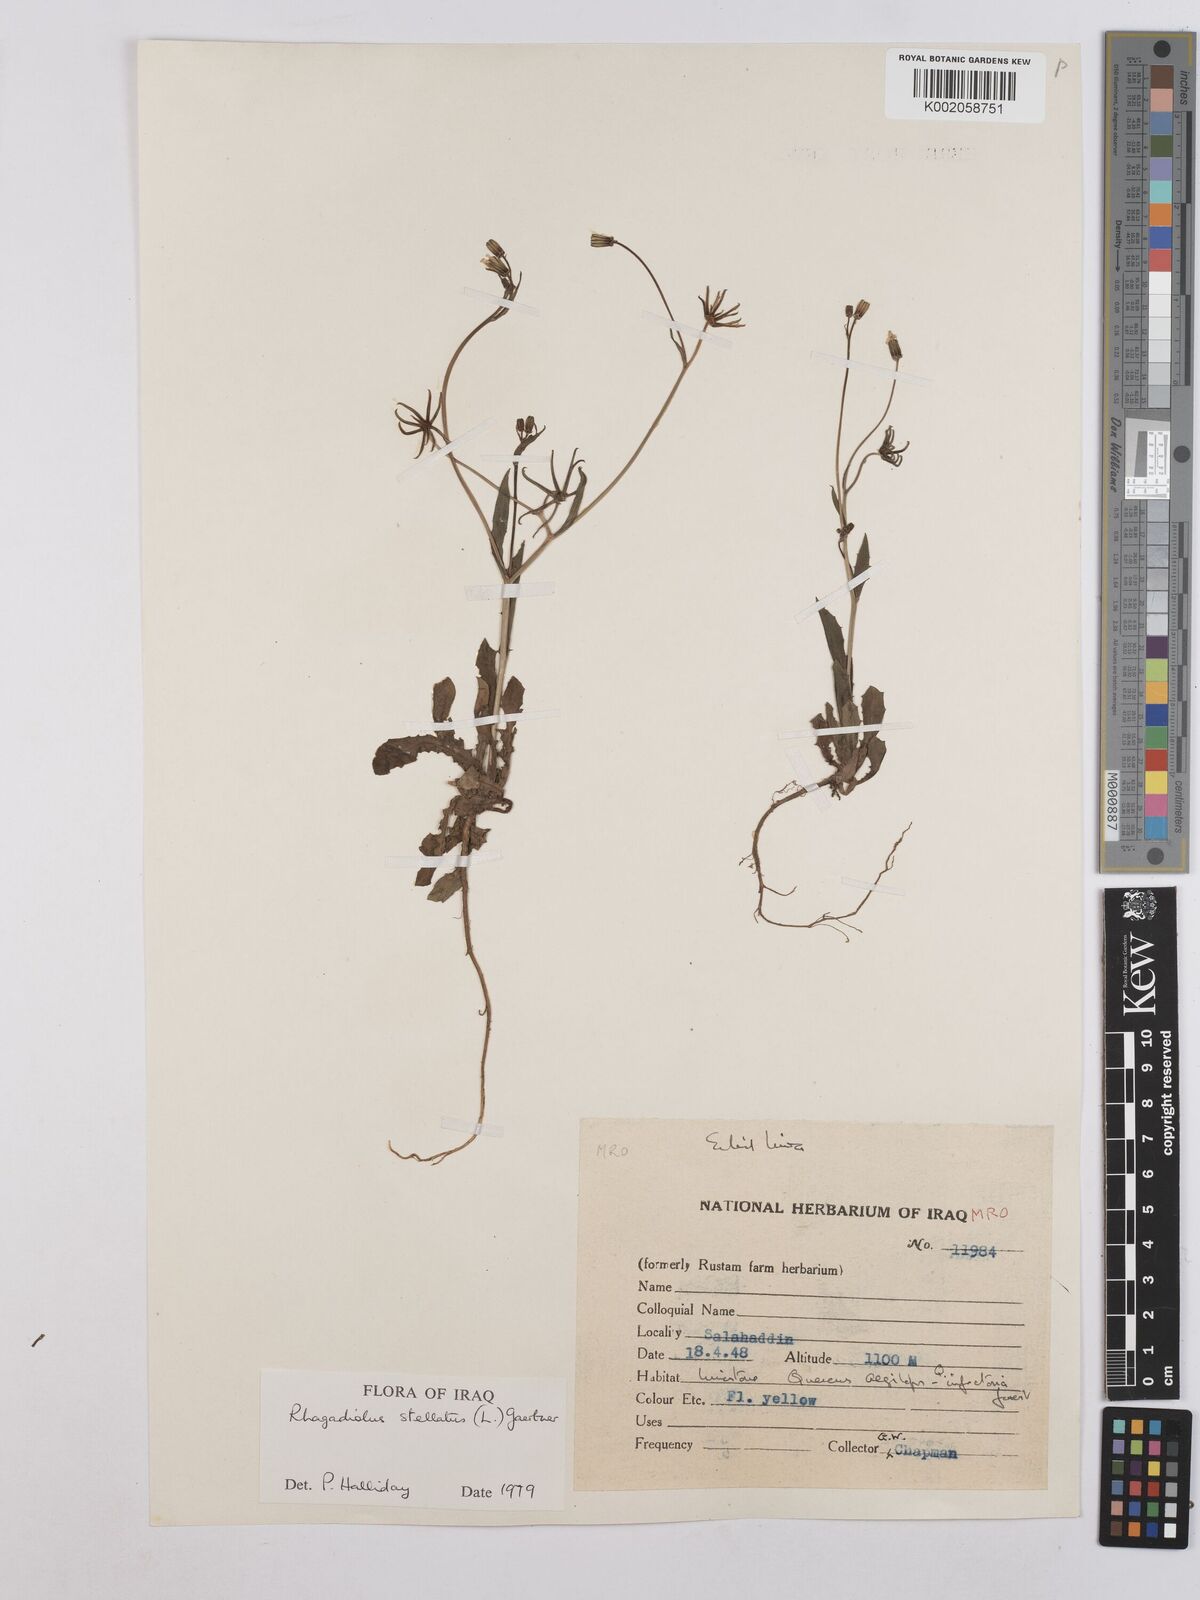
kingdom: Plantae
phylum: Tracheophyta
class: Magnoliopsida
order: Asterales
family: Asteraceae
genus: Rhagadiolus
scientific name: Rhagadiolus stellatus
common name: Star hawkbit
